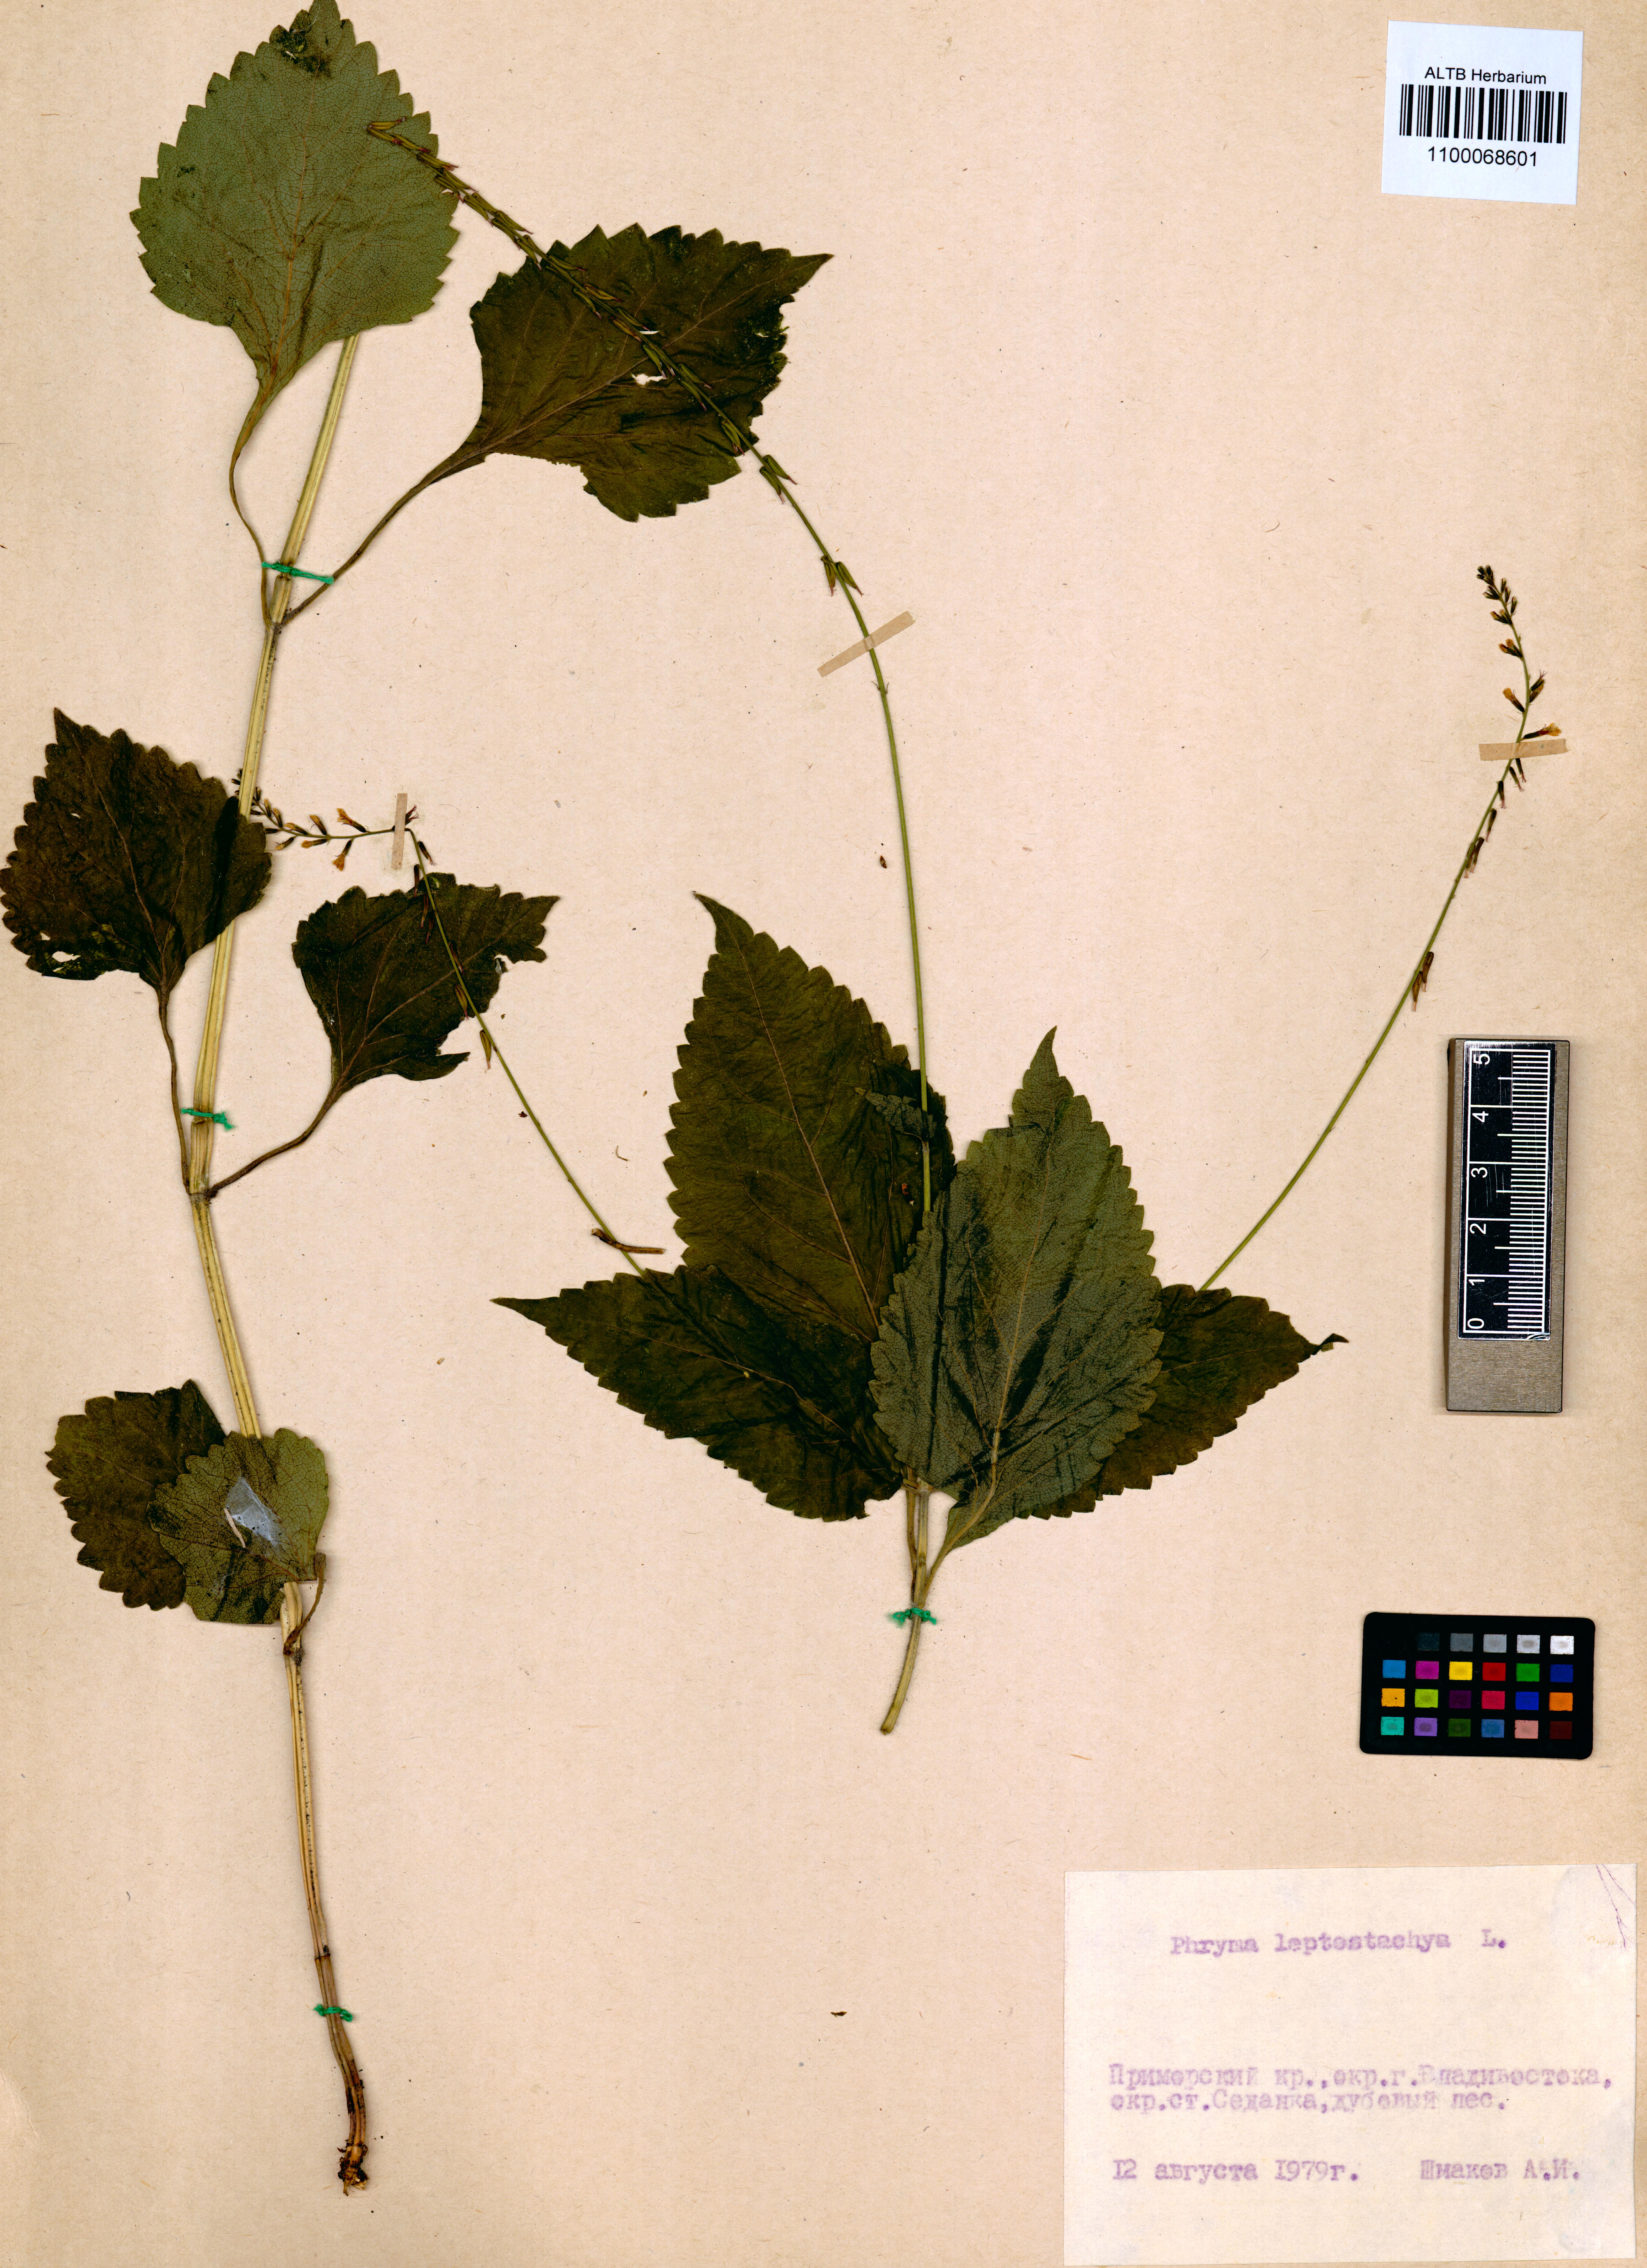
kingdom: Plantae
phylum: Tracheophyta
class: Magnoliopsida
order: Lamiales
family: Phrymaceae
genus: Phryma
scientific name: Phryma leptostachya
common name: American lopseed
